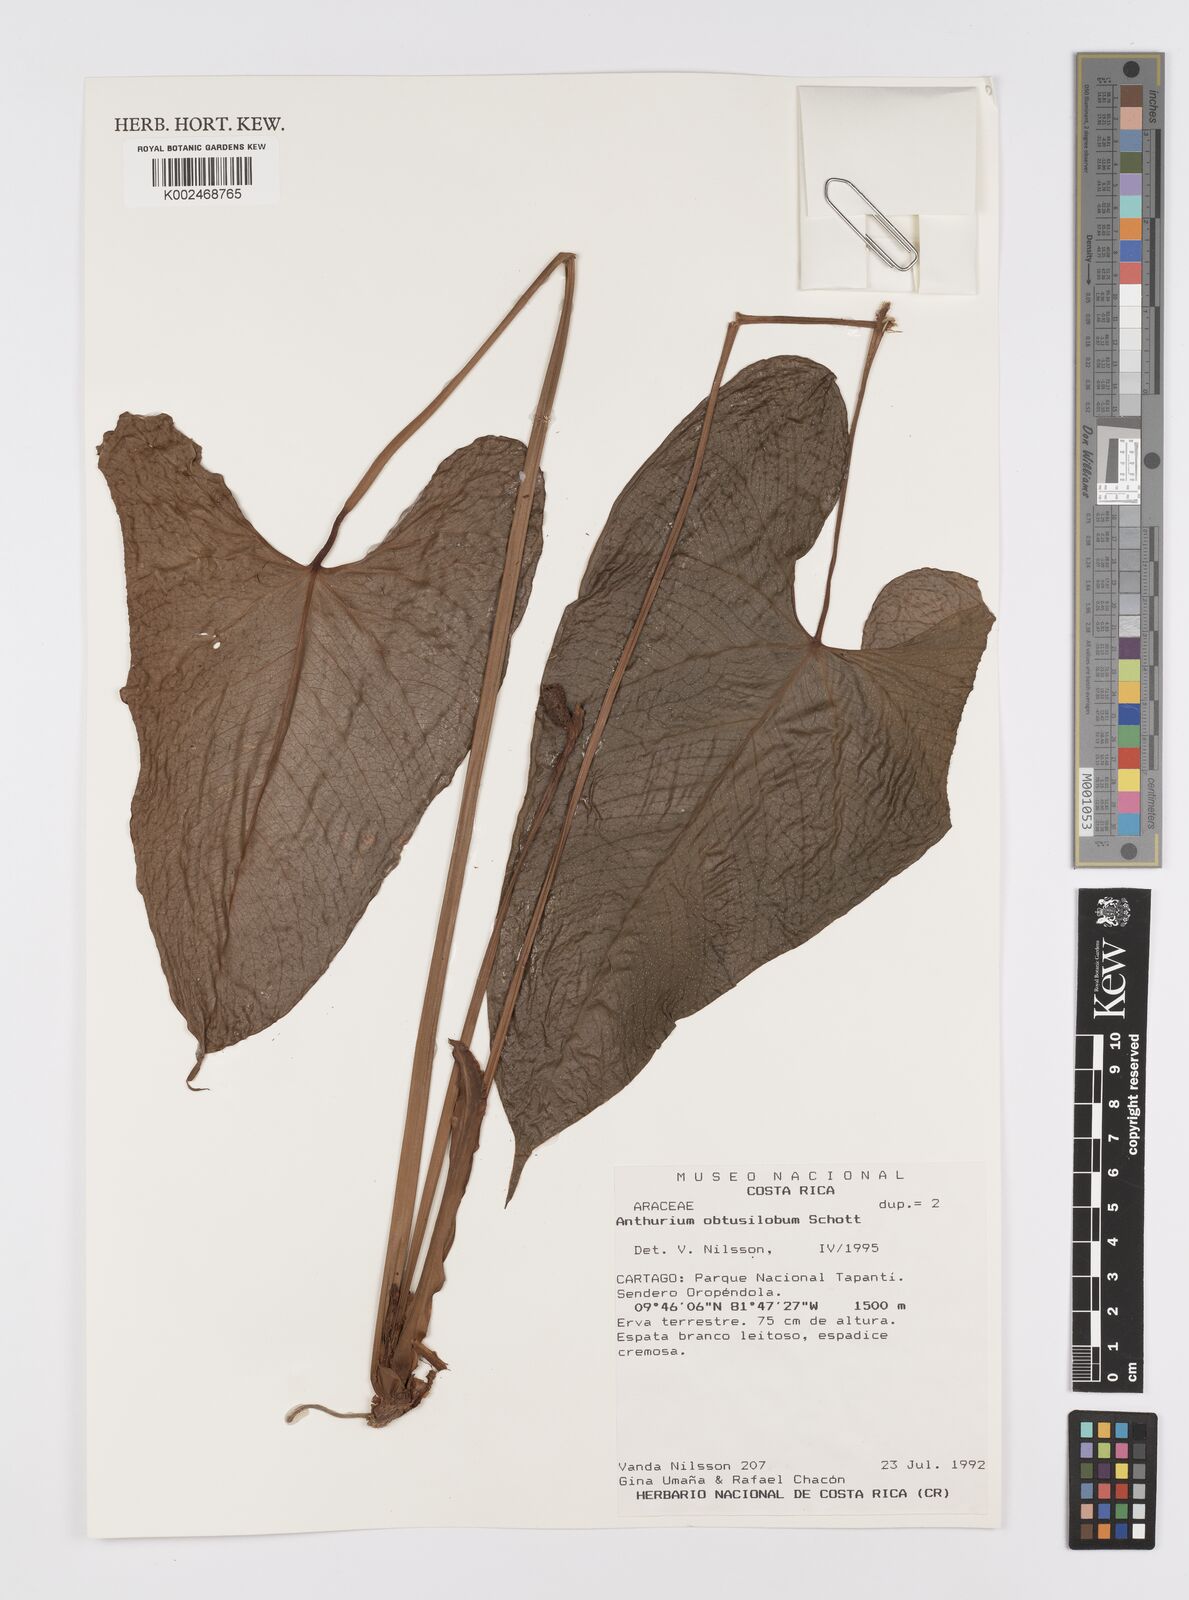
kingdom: Plantae
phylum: Tracheophyta
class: Liliopsida
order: Alismatales
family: Araceae
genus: Anthurium
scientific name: Anthurium obtusilobum
